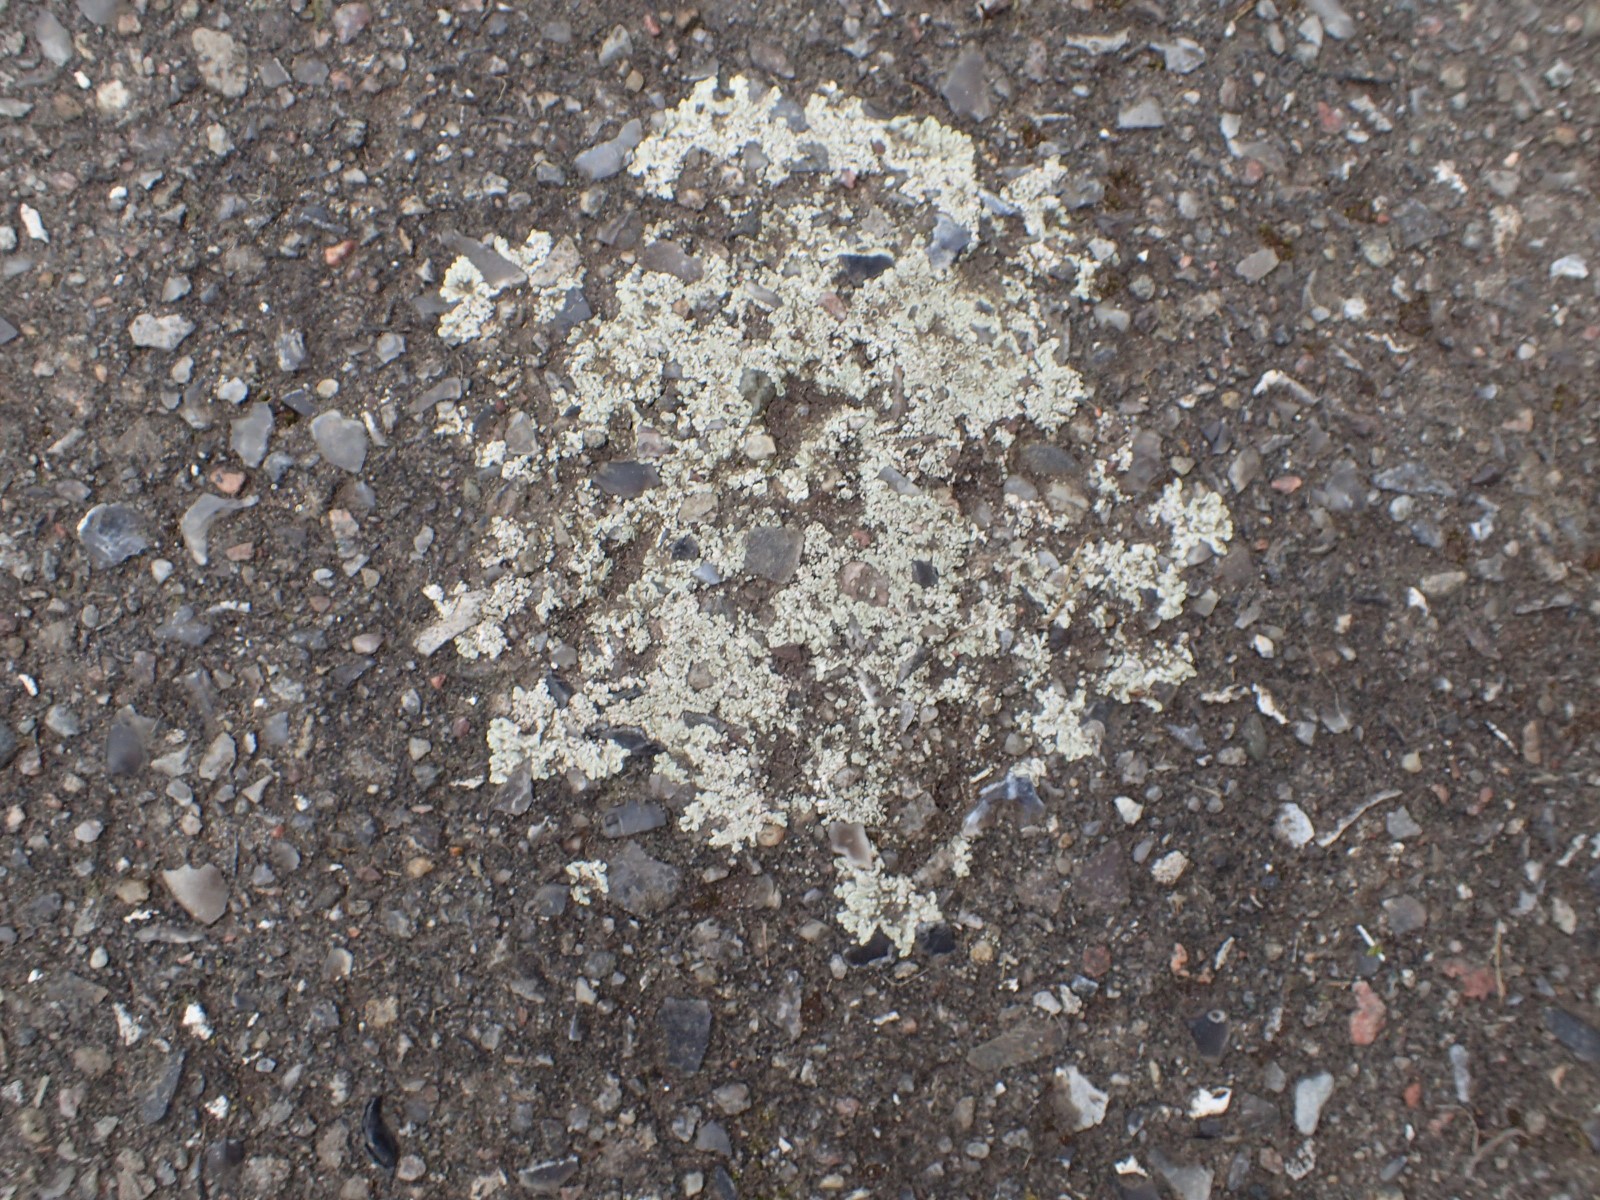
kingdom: Fungi
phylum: Ascomycota
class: Lecanoromycetes
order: Lecanorales
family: Lecanoraceae
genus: Protoparmeliopsis
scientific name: Protoparmeliopsis muralis
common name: randfliget kantskivelav
